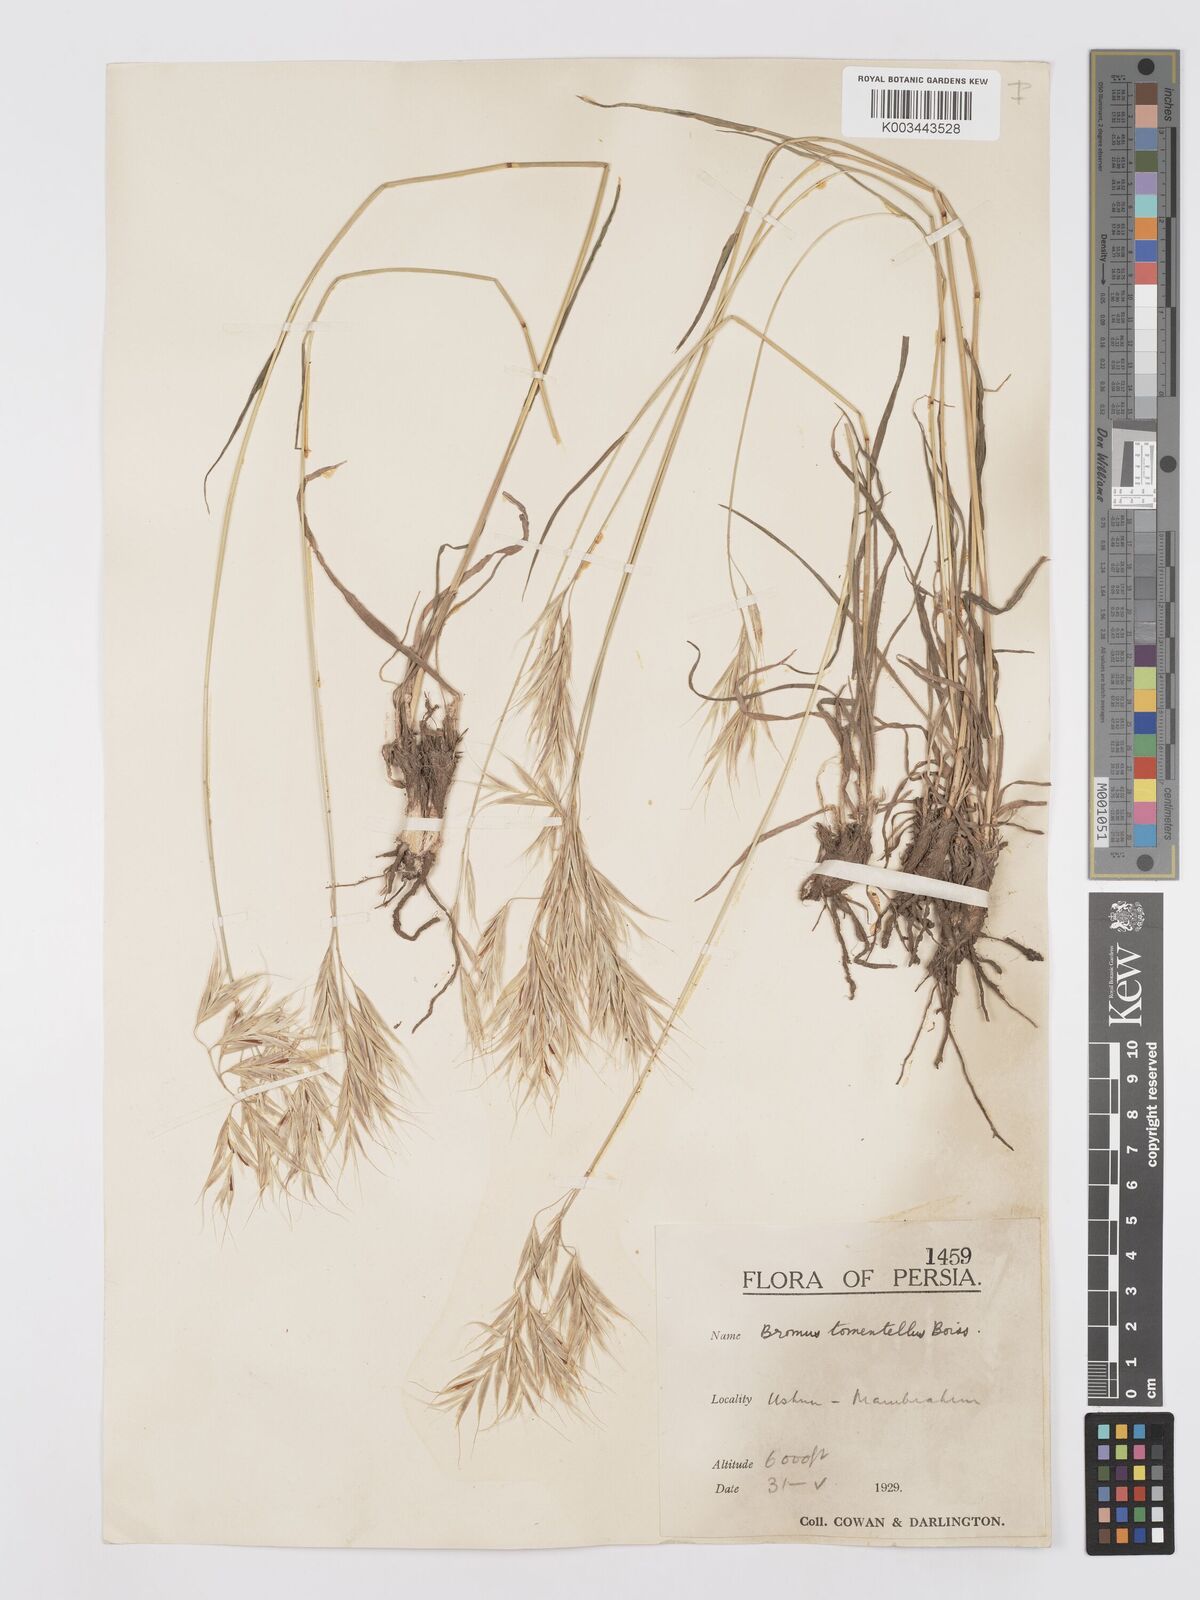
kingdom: Plantae
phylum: Tracheophyta
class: Liliopsida
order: Poales
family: Poaceae
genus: Bromus
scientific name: Bromus tomentellus
